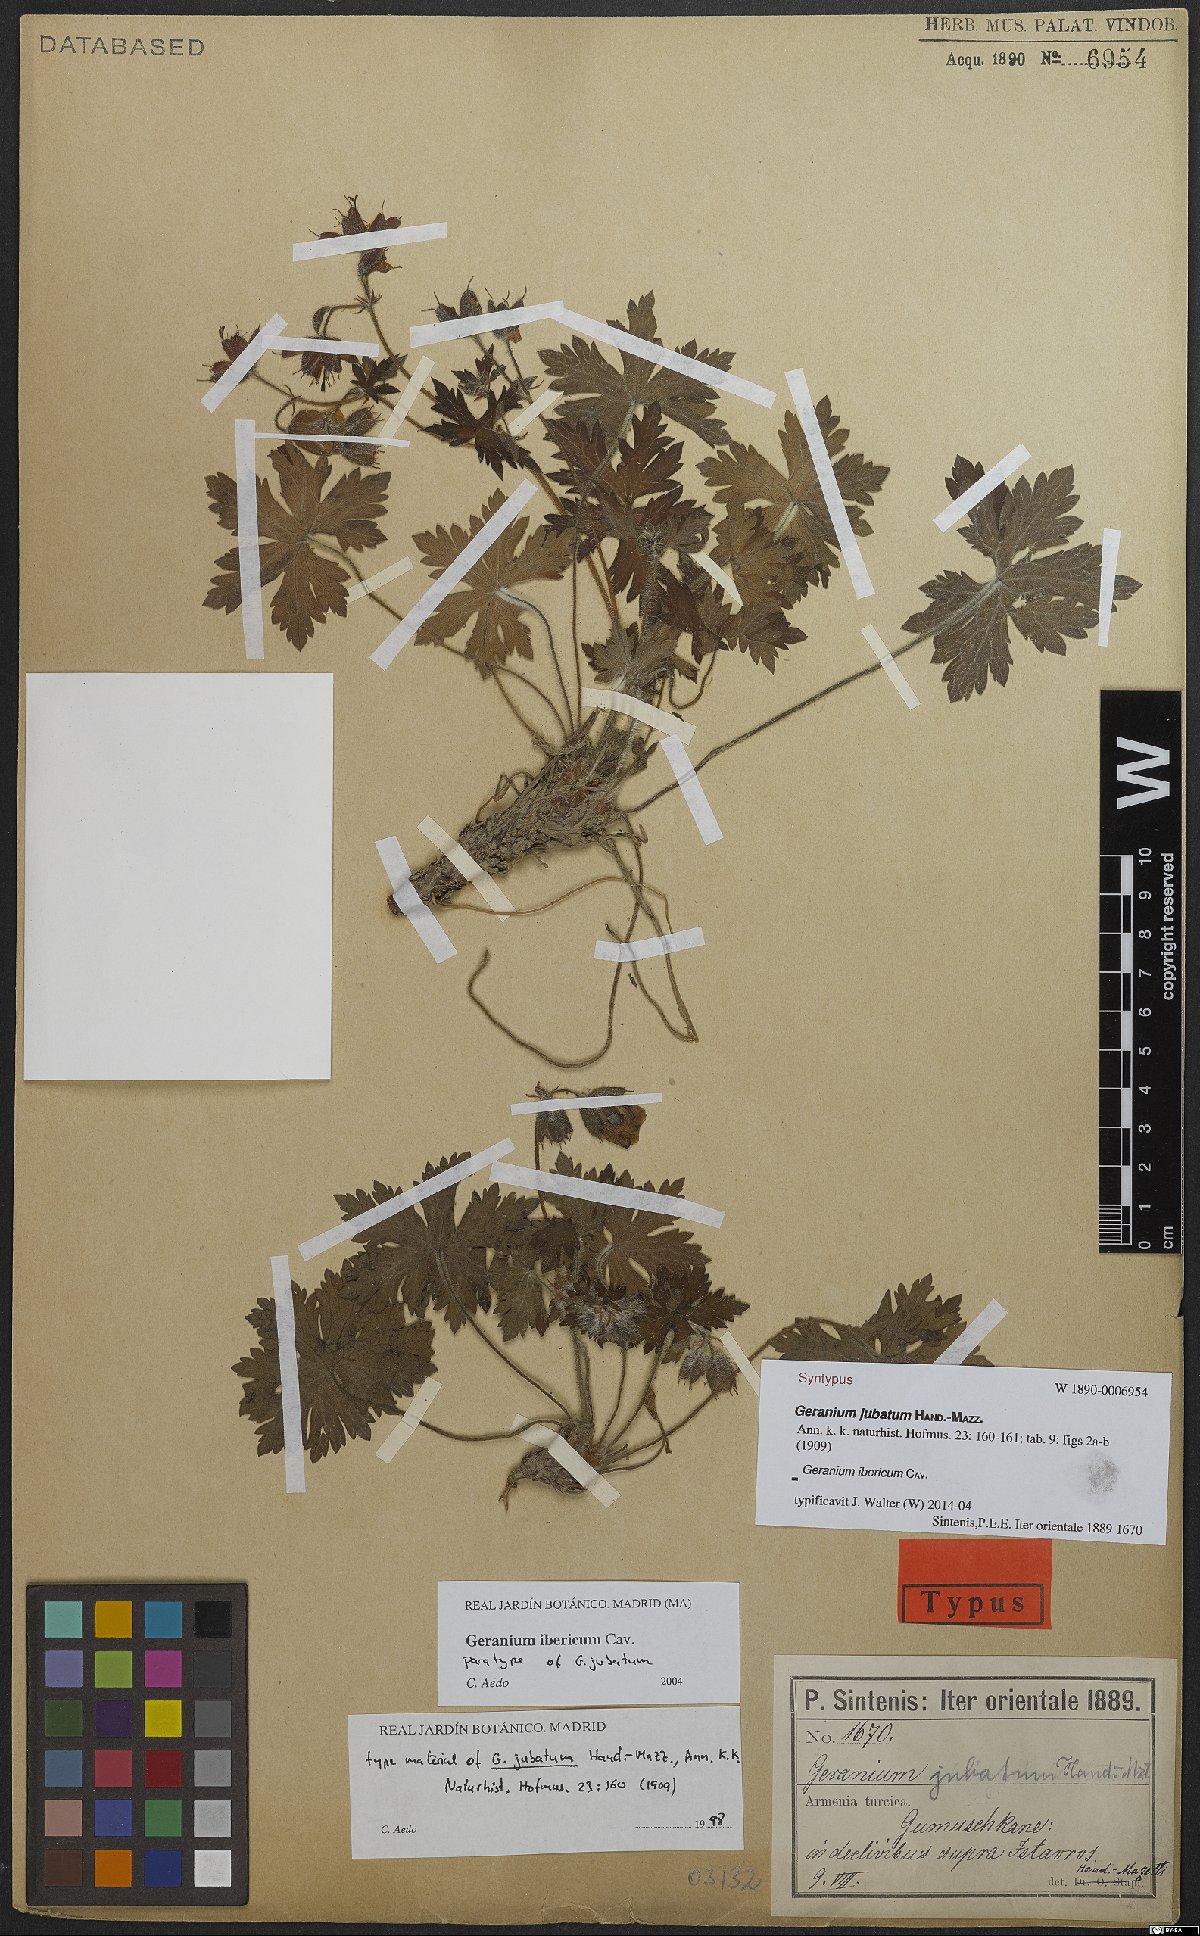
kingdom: Plantae
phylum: Tracheophyta
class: Magnoliopsida
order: Geraniales
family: Geraniaceae
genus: Geranium
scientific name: Geranium ibericum
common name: Caucasian crane's-bill
